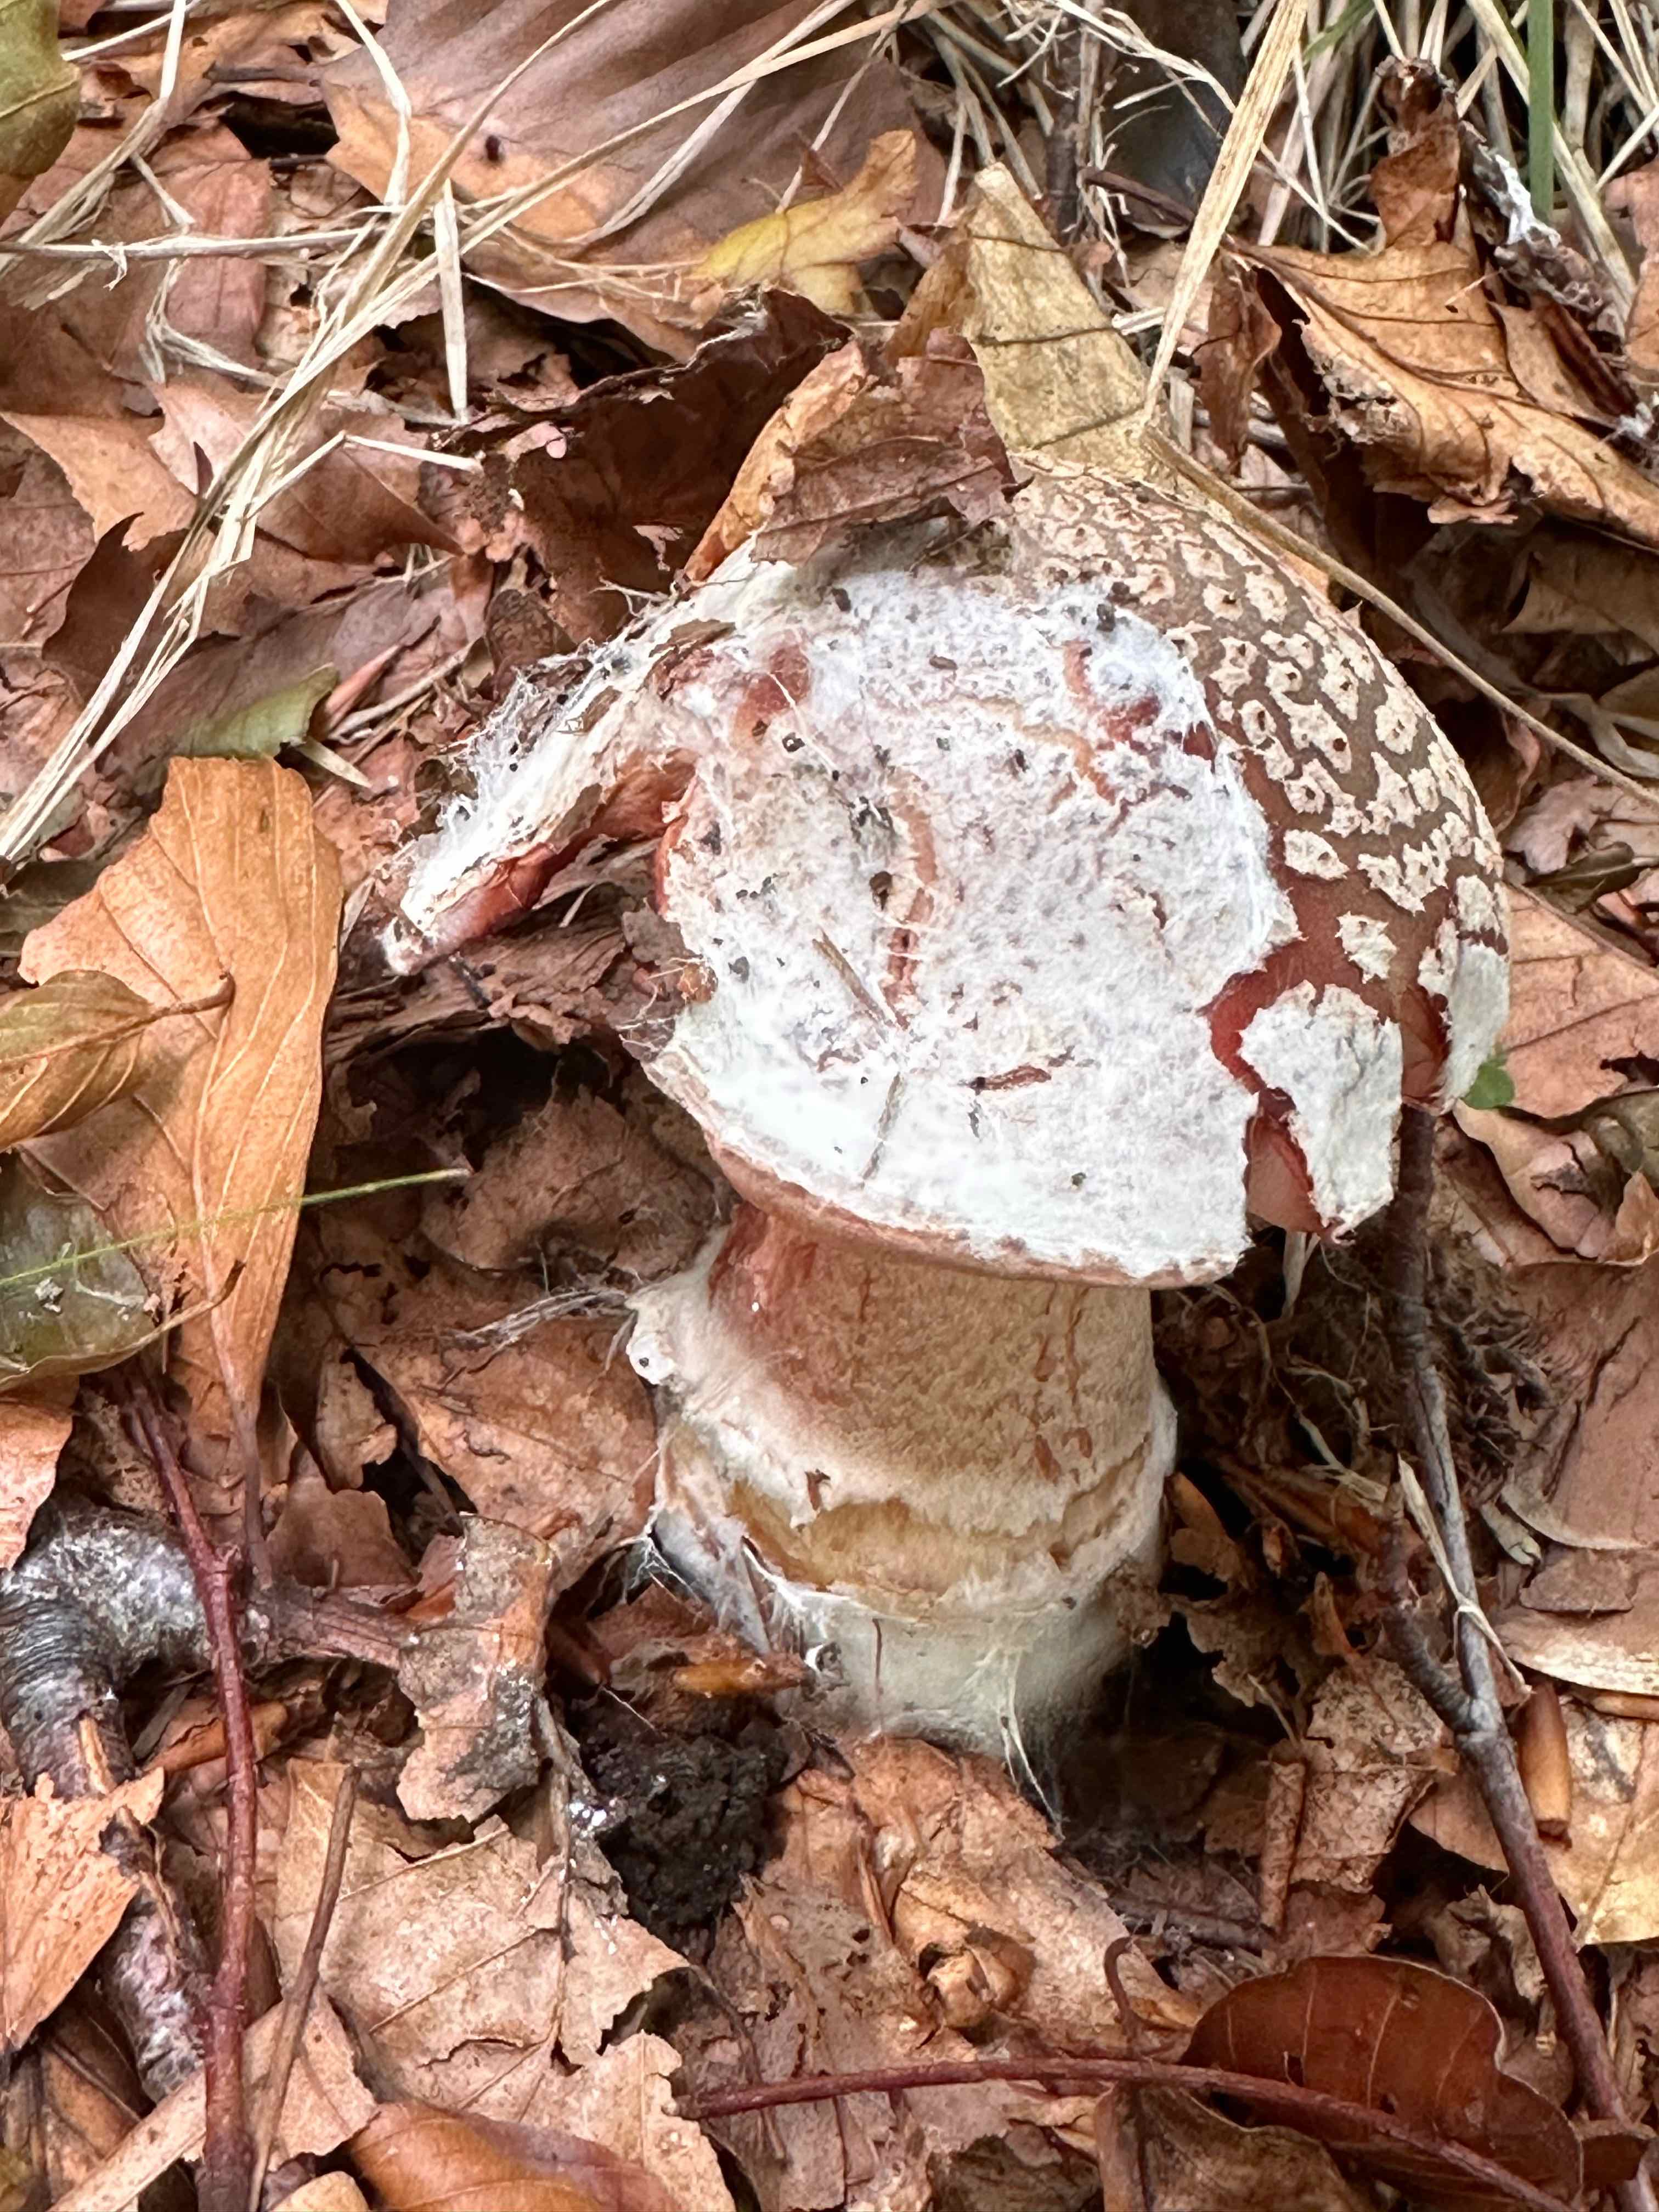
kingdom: Fungi
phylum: Basidiomycota
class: Agaricomycetes
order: Agaricales
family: Amanitaceae
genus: Amanita
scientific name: Amanita rubescens
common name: rødmende fluesvamp
